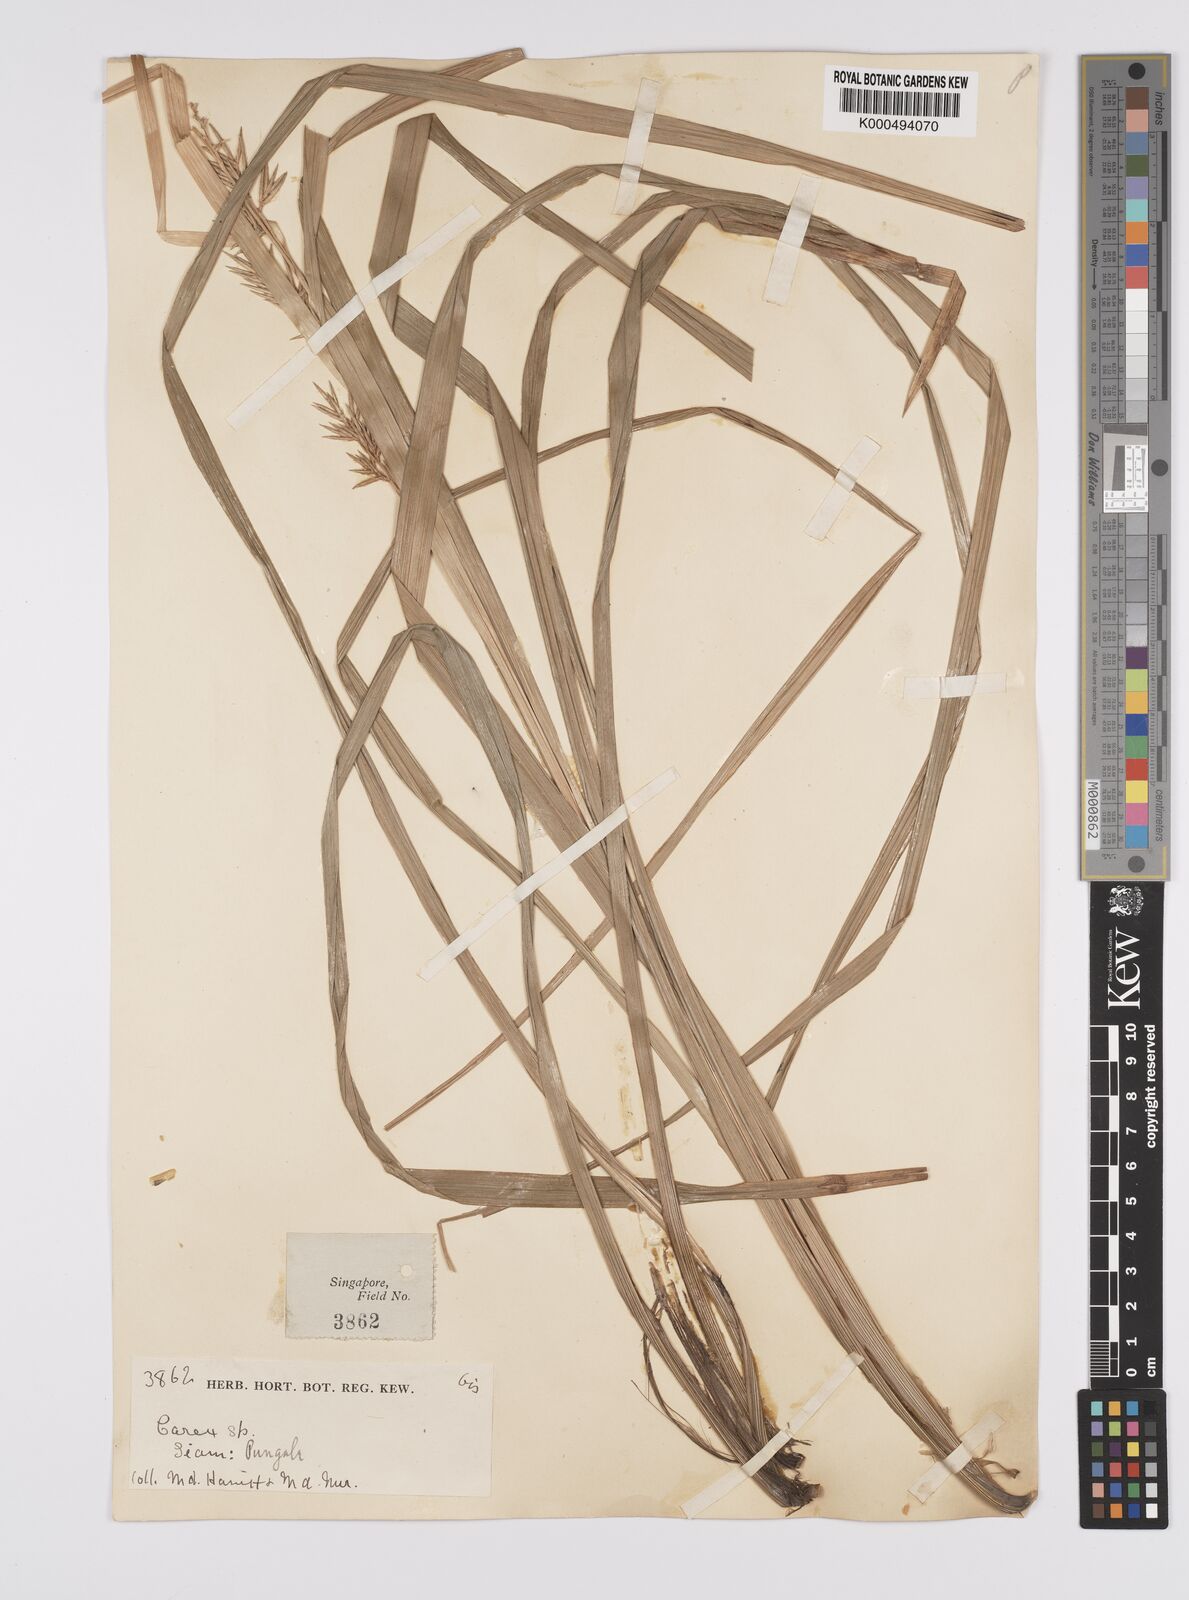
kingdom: Plantae
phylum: Tracheophyta
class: Liliopsida
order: Poales
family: Cyperaceae
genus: Carex
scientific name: Carex indica
